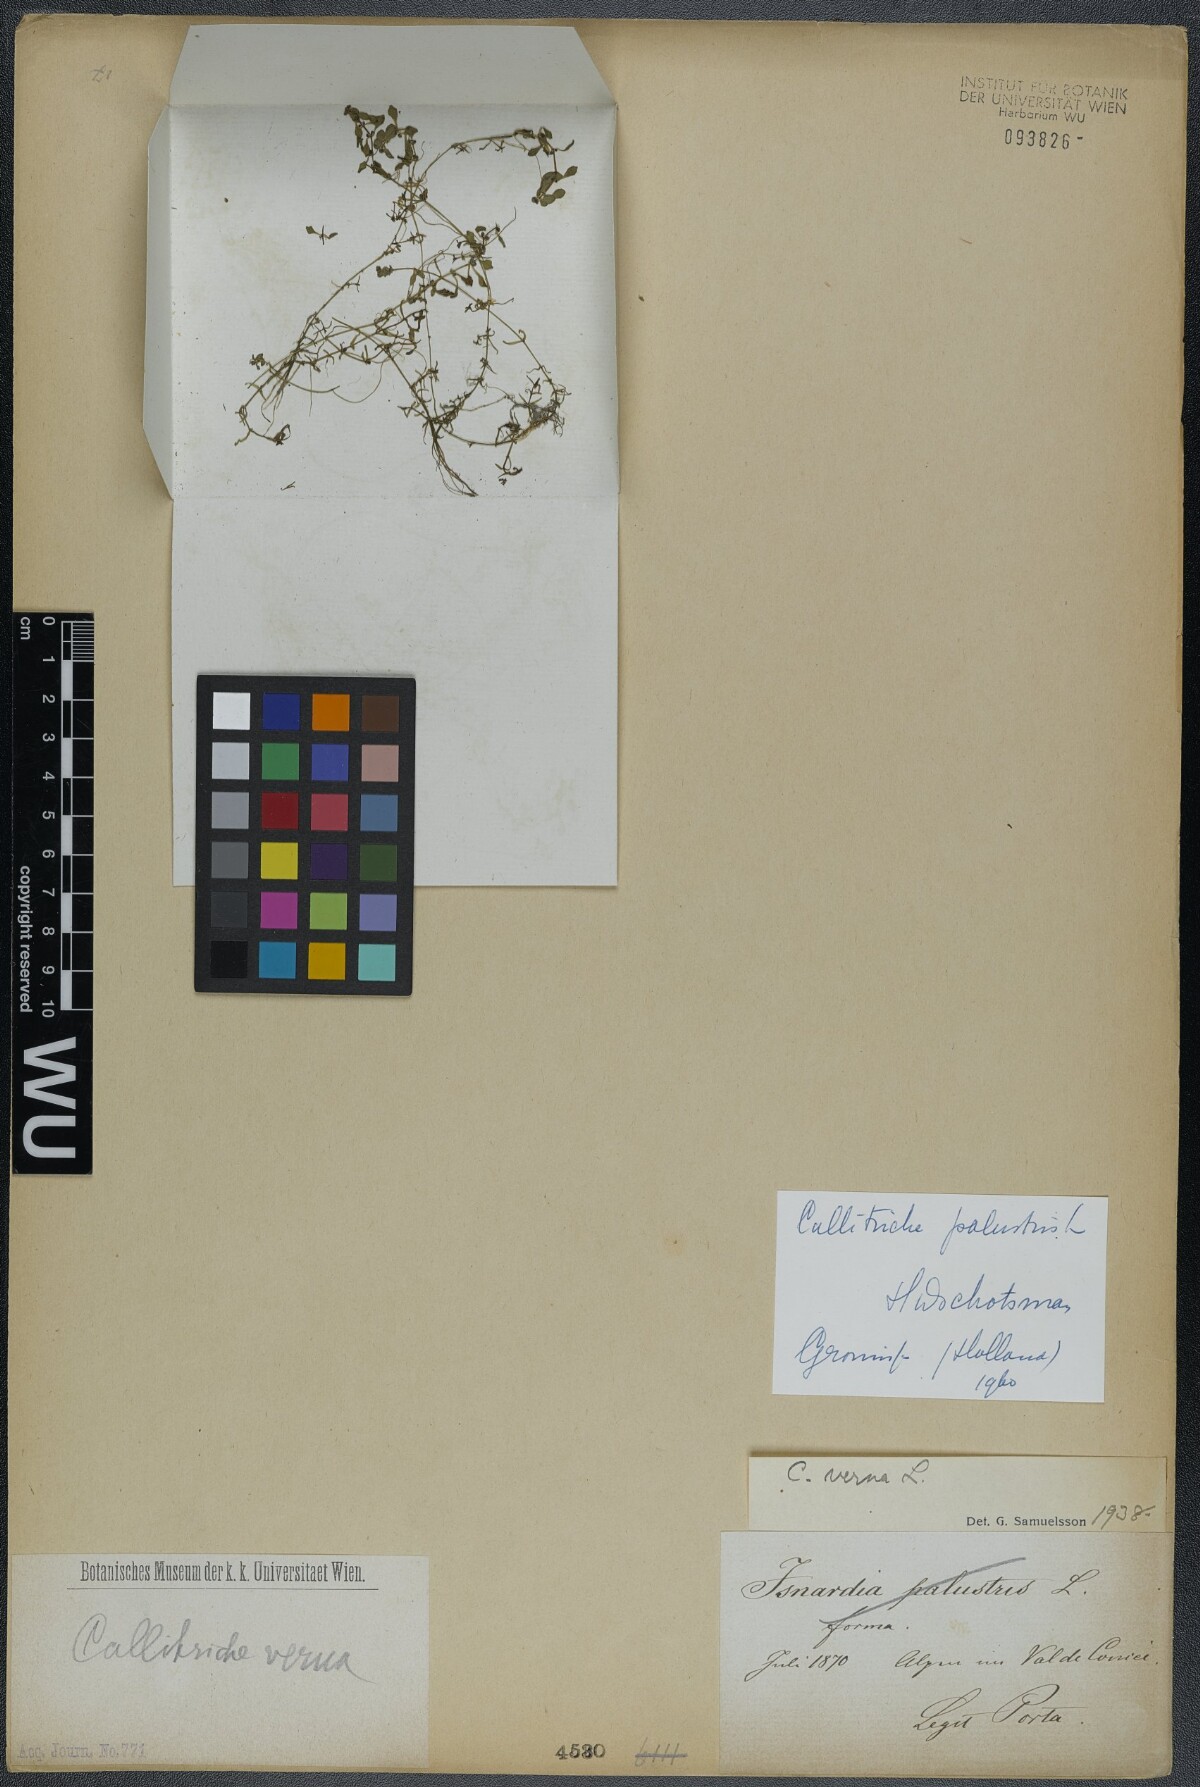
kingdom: Plantae
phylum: Tracheophyta
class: Magnoliopsida
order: Lamiales
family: Plantaginaceae
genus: Callitriche
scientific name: Callitriche palustris
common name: Spring water-starwort
